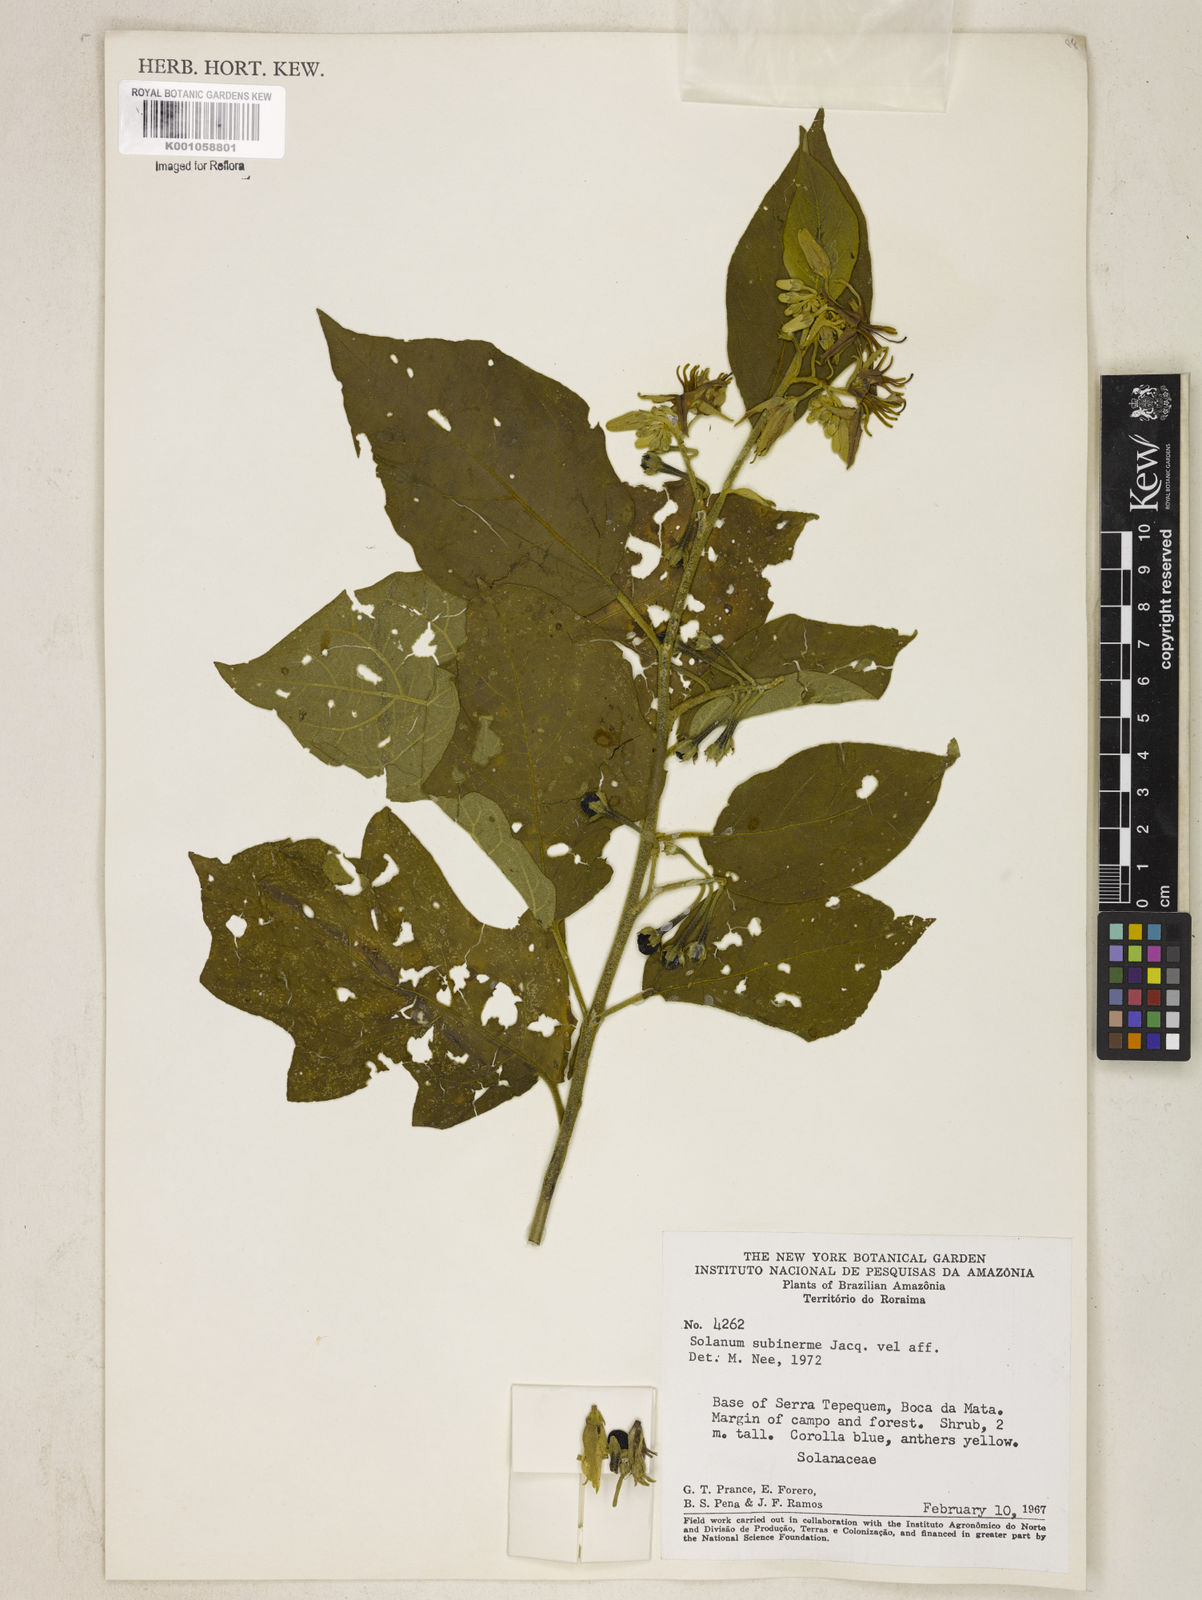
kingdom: Plantae
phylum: Tracheophyta
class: Magnoliopsida
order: Solanales
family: Solanaceae
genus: Solanum
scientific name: Solanum subinerme
